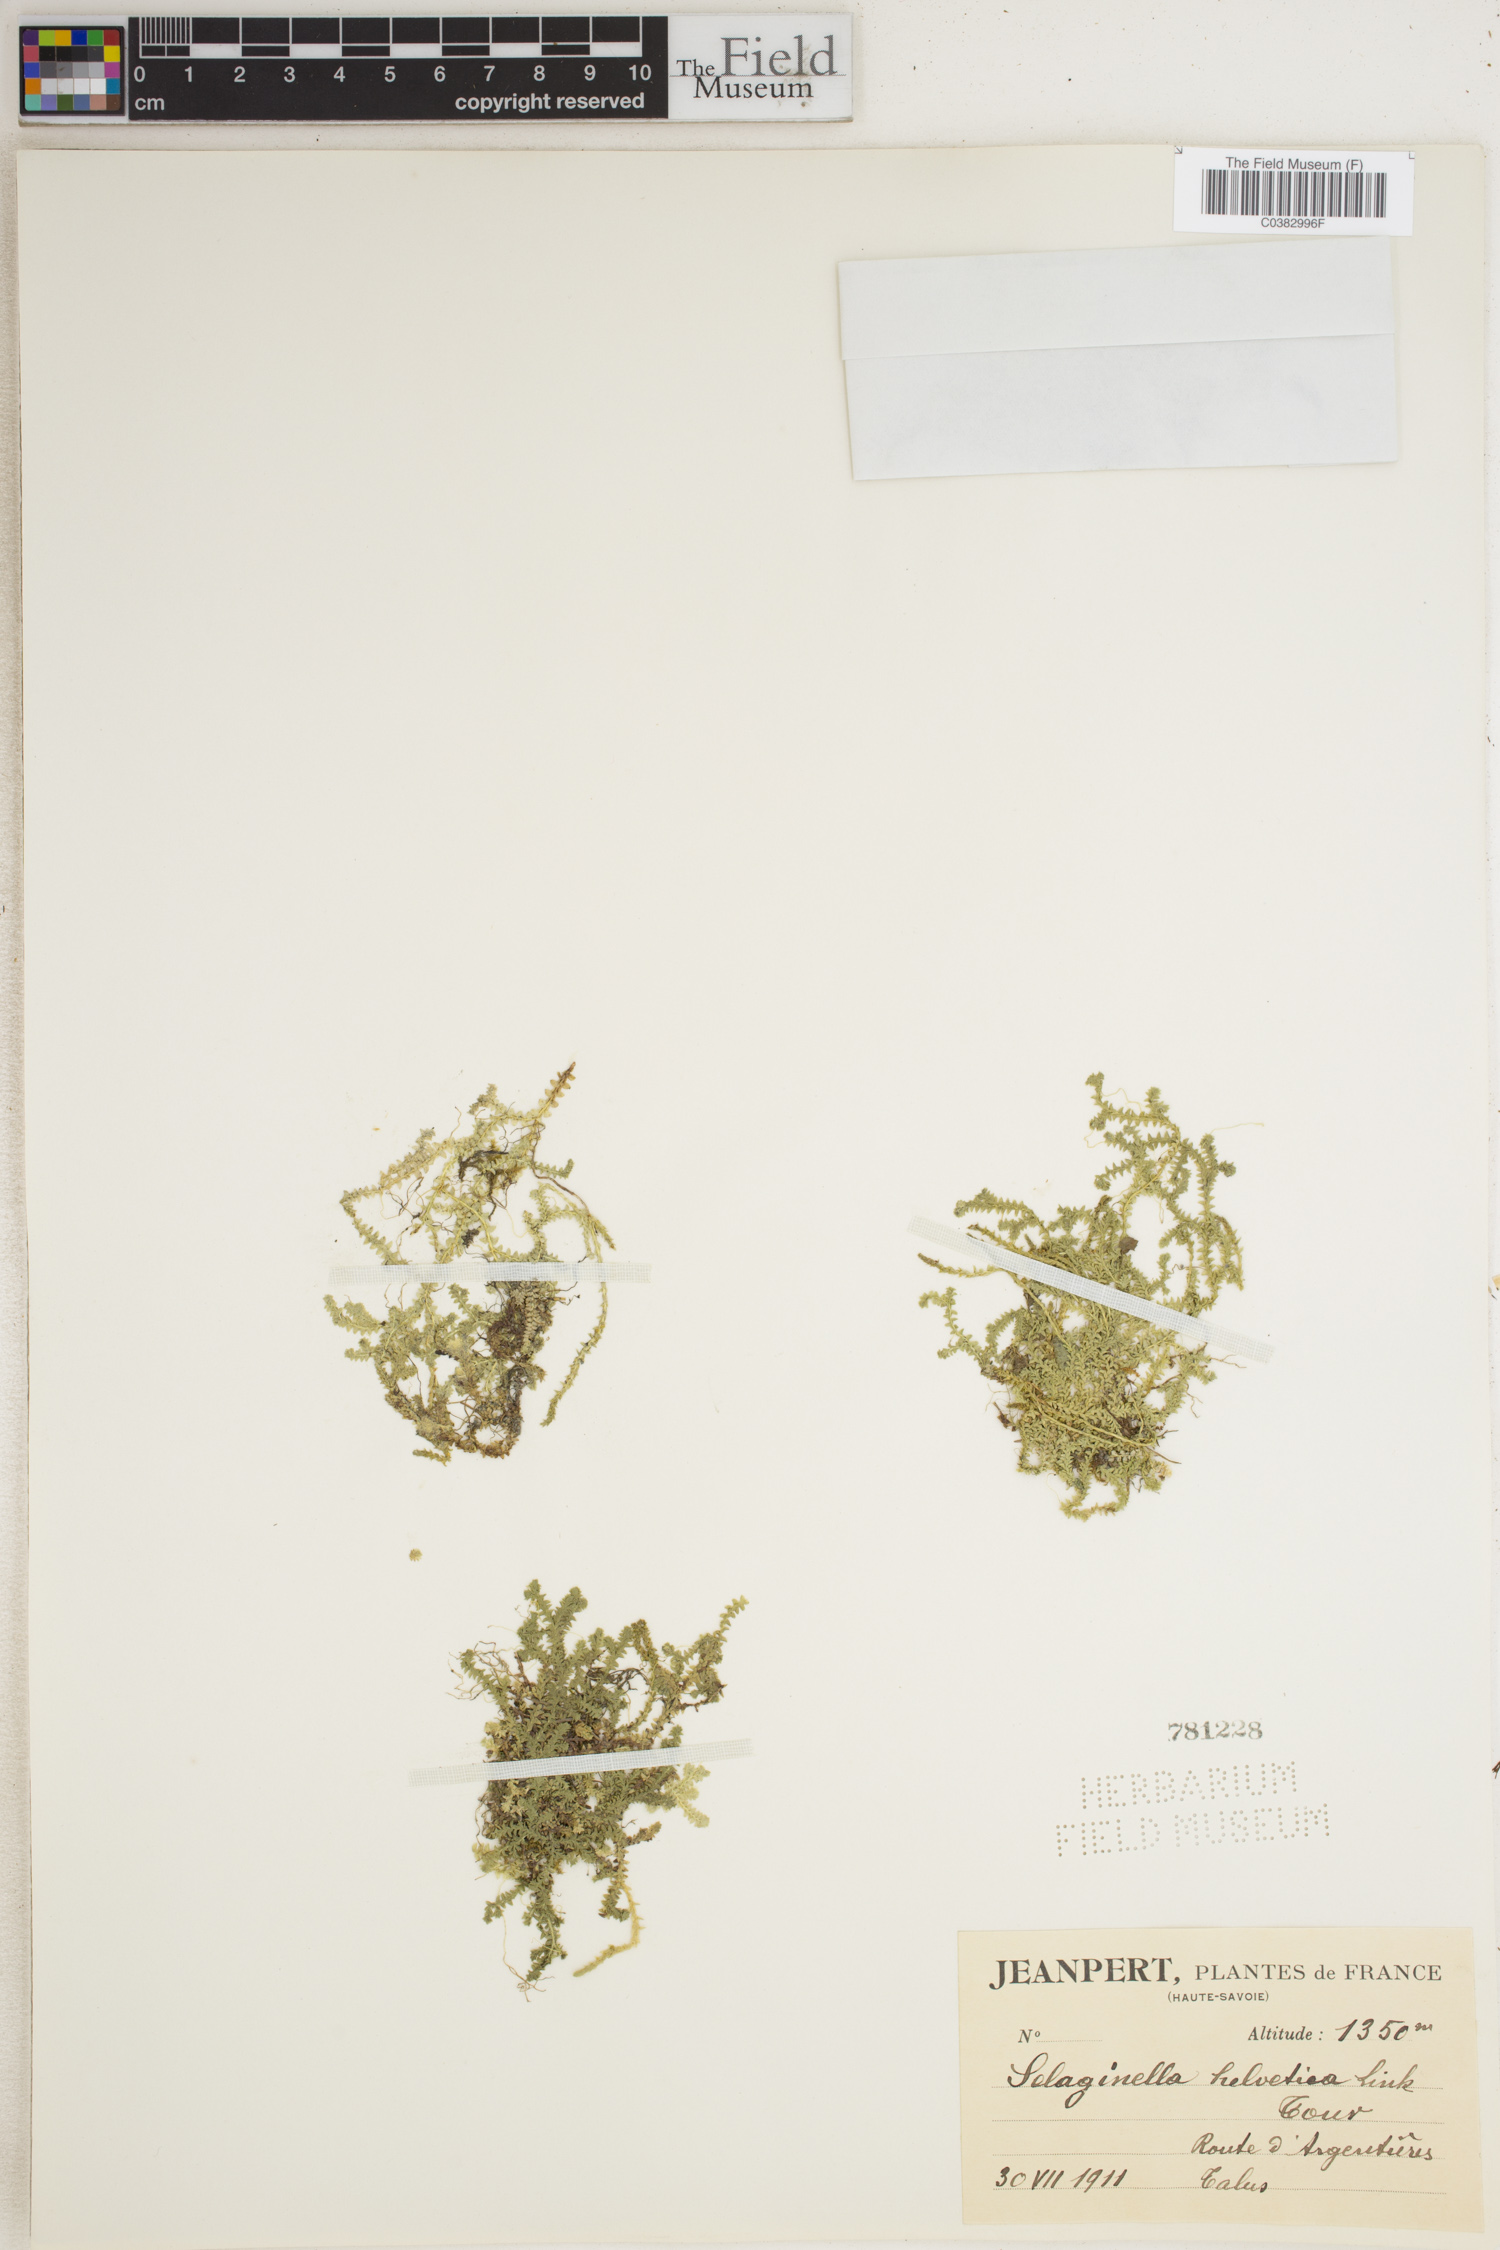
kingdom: Plantae
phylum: Tracheophyta
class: Lycopodiopsida
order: Selaginellales
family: Selaginellaceae
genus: Selaginella
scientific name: Selaginella helvetica
